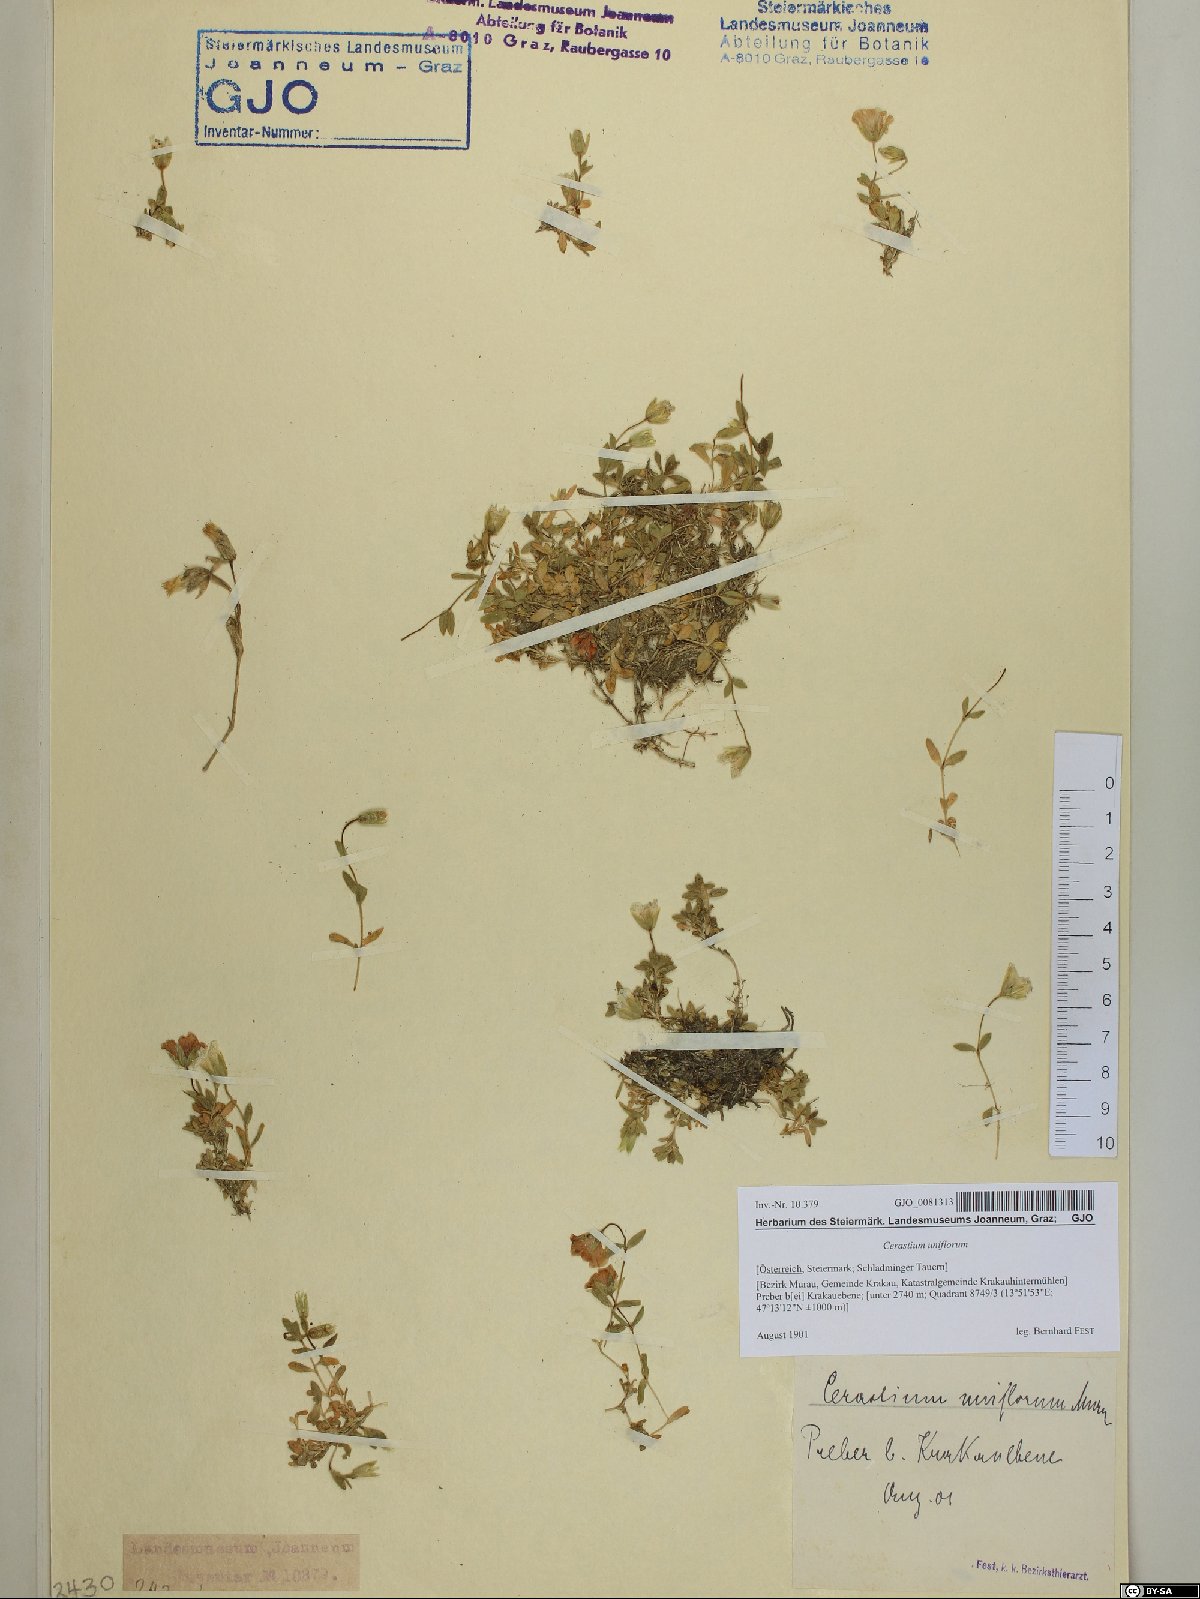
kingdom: Plantae
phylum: Tracheophyta
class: Magnoliopsida
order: Caryophyllales
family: Caryophyllaceae
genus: Cerastium
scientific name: Cerastium uniflorum
